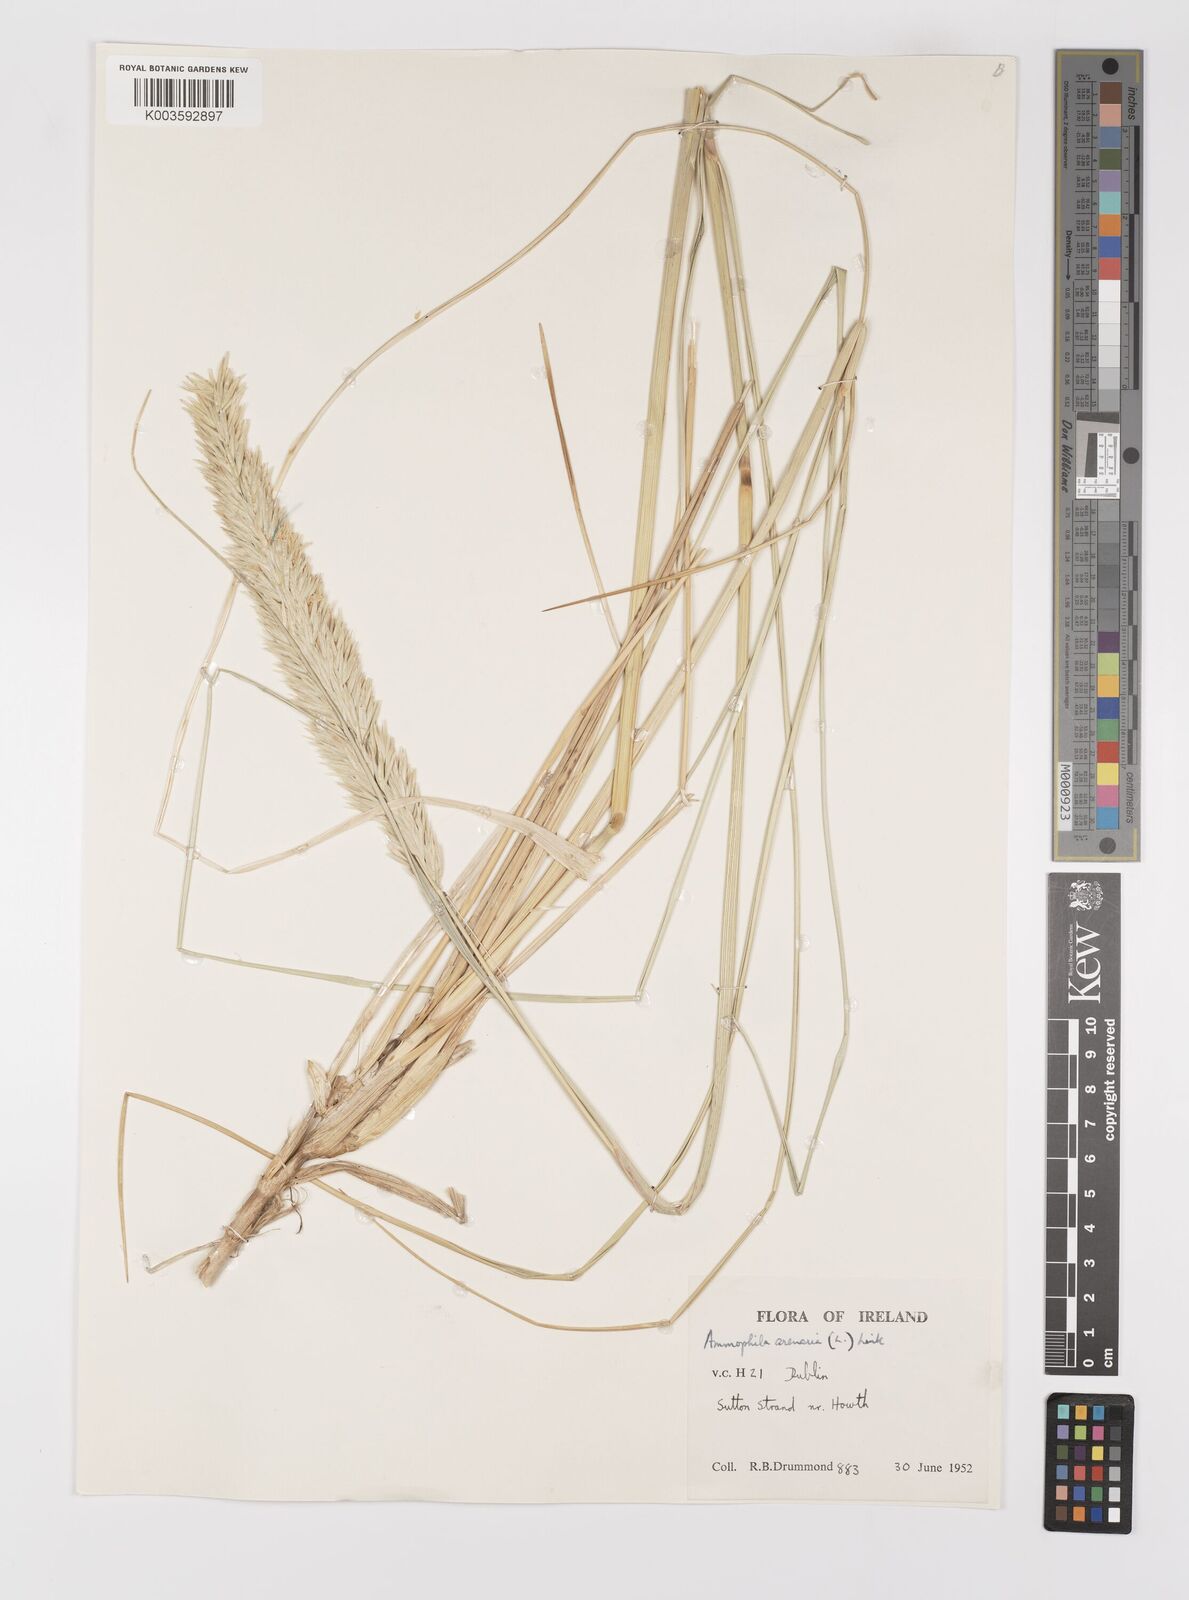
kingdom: Plantae
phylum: Tracheophyta
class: Liliopsida
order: Poales
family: Poaceae
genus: Calamagrostis
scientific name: Calamagrostis arenaria
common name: European beachgrass
